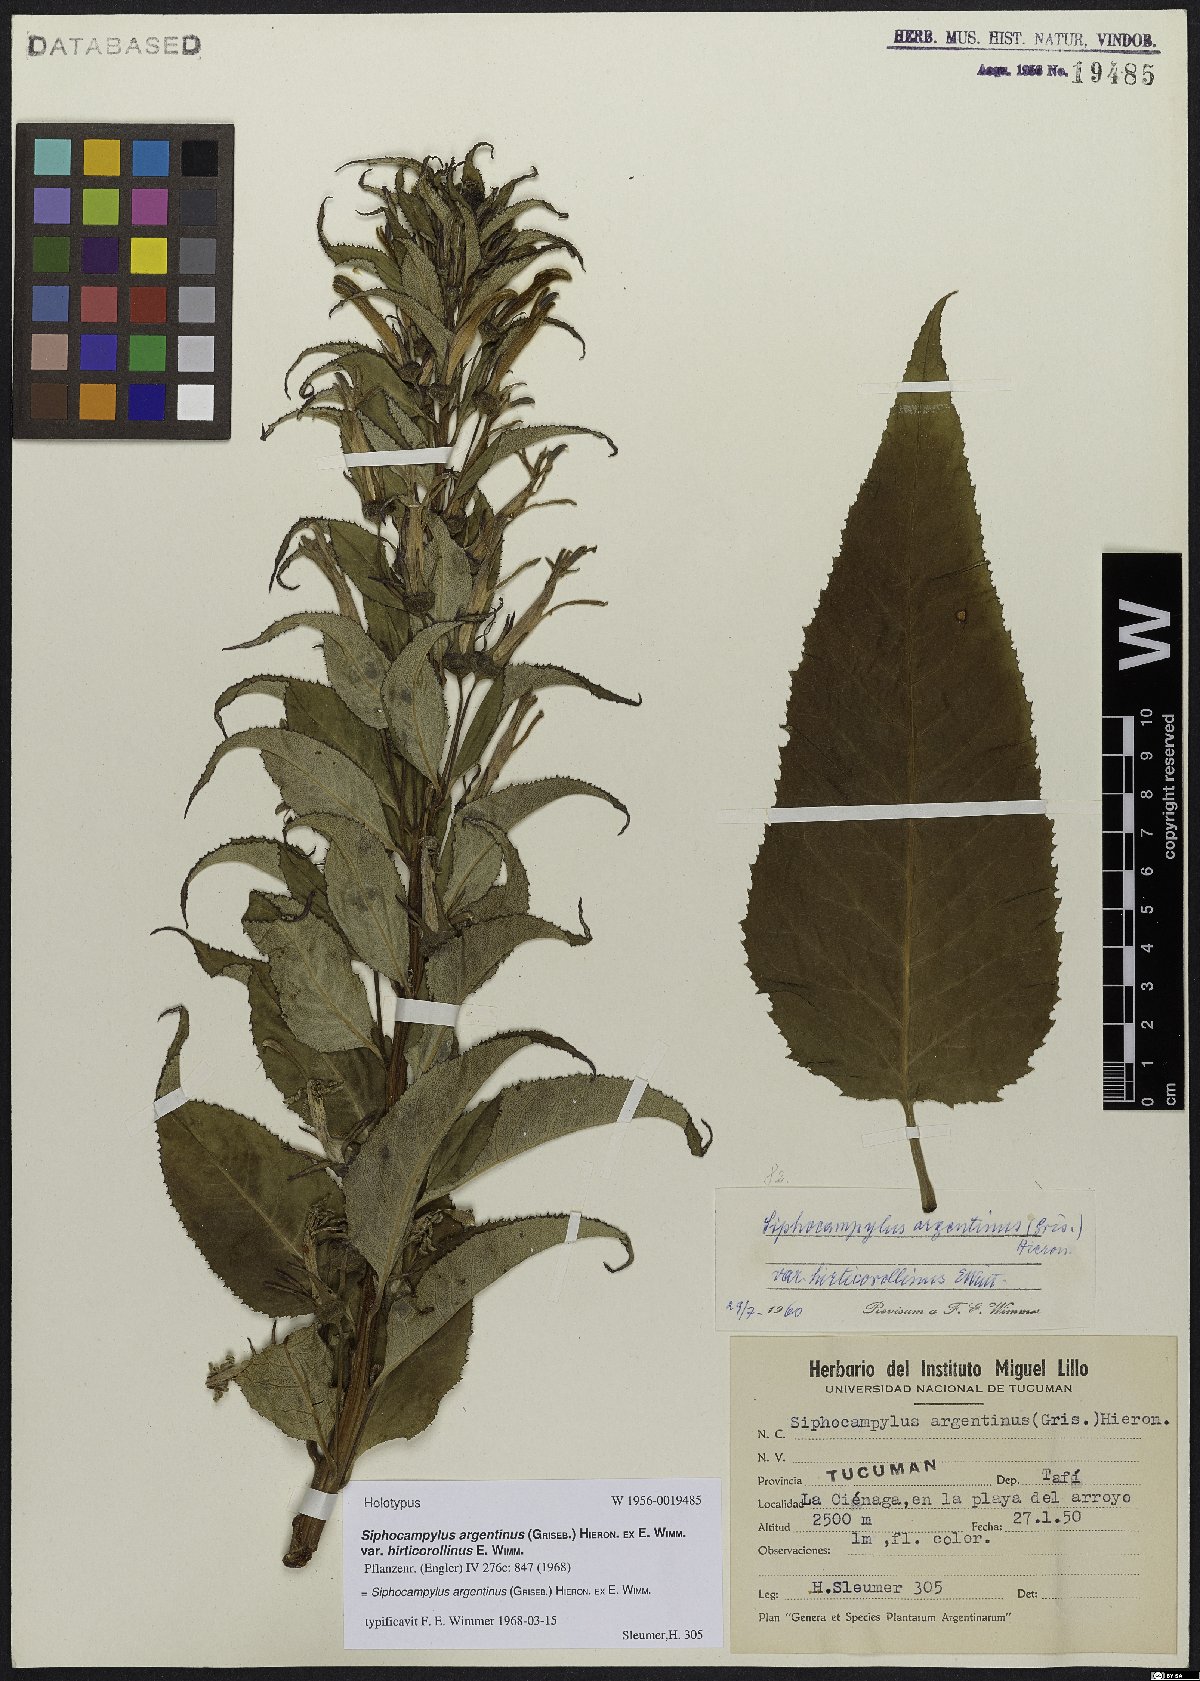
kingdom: Plantae
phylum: Tracheophyta
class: Magnoliopsida
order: Asterales
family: Campanulaceae
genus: Siphocampylus
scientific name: Siphocampylus argentinus
